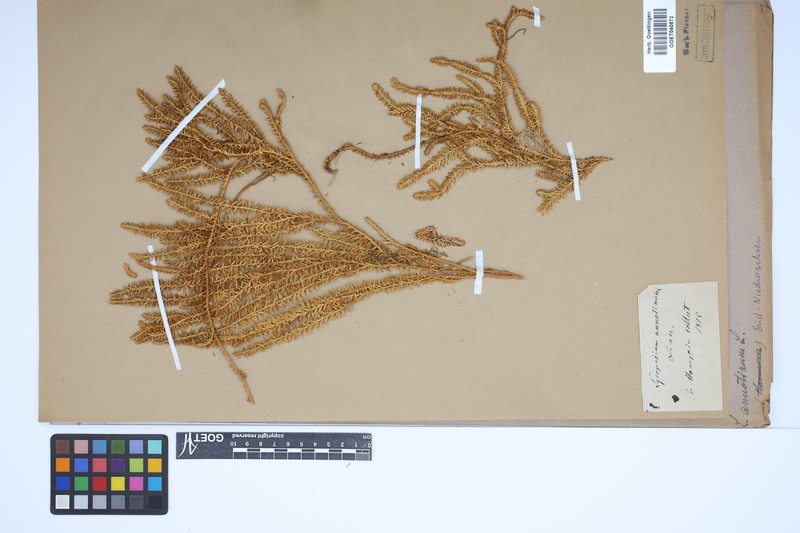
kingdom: Plantae
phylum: Tracheophyta
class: Lycopodiopsida
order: Lycopodiales
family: Lycopodiaceae
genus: Spinulum
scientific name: Spinulum annotinum
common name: Interrupted club-moss
